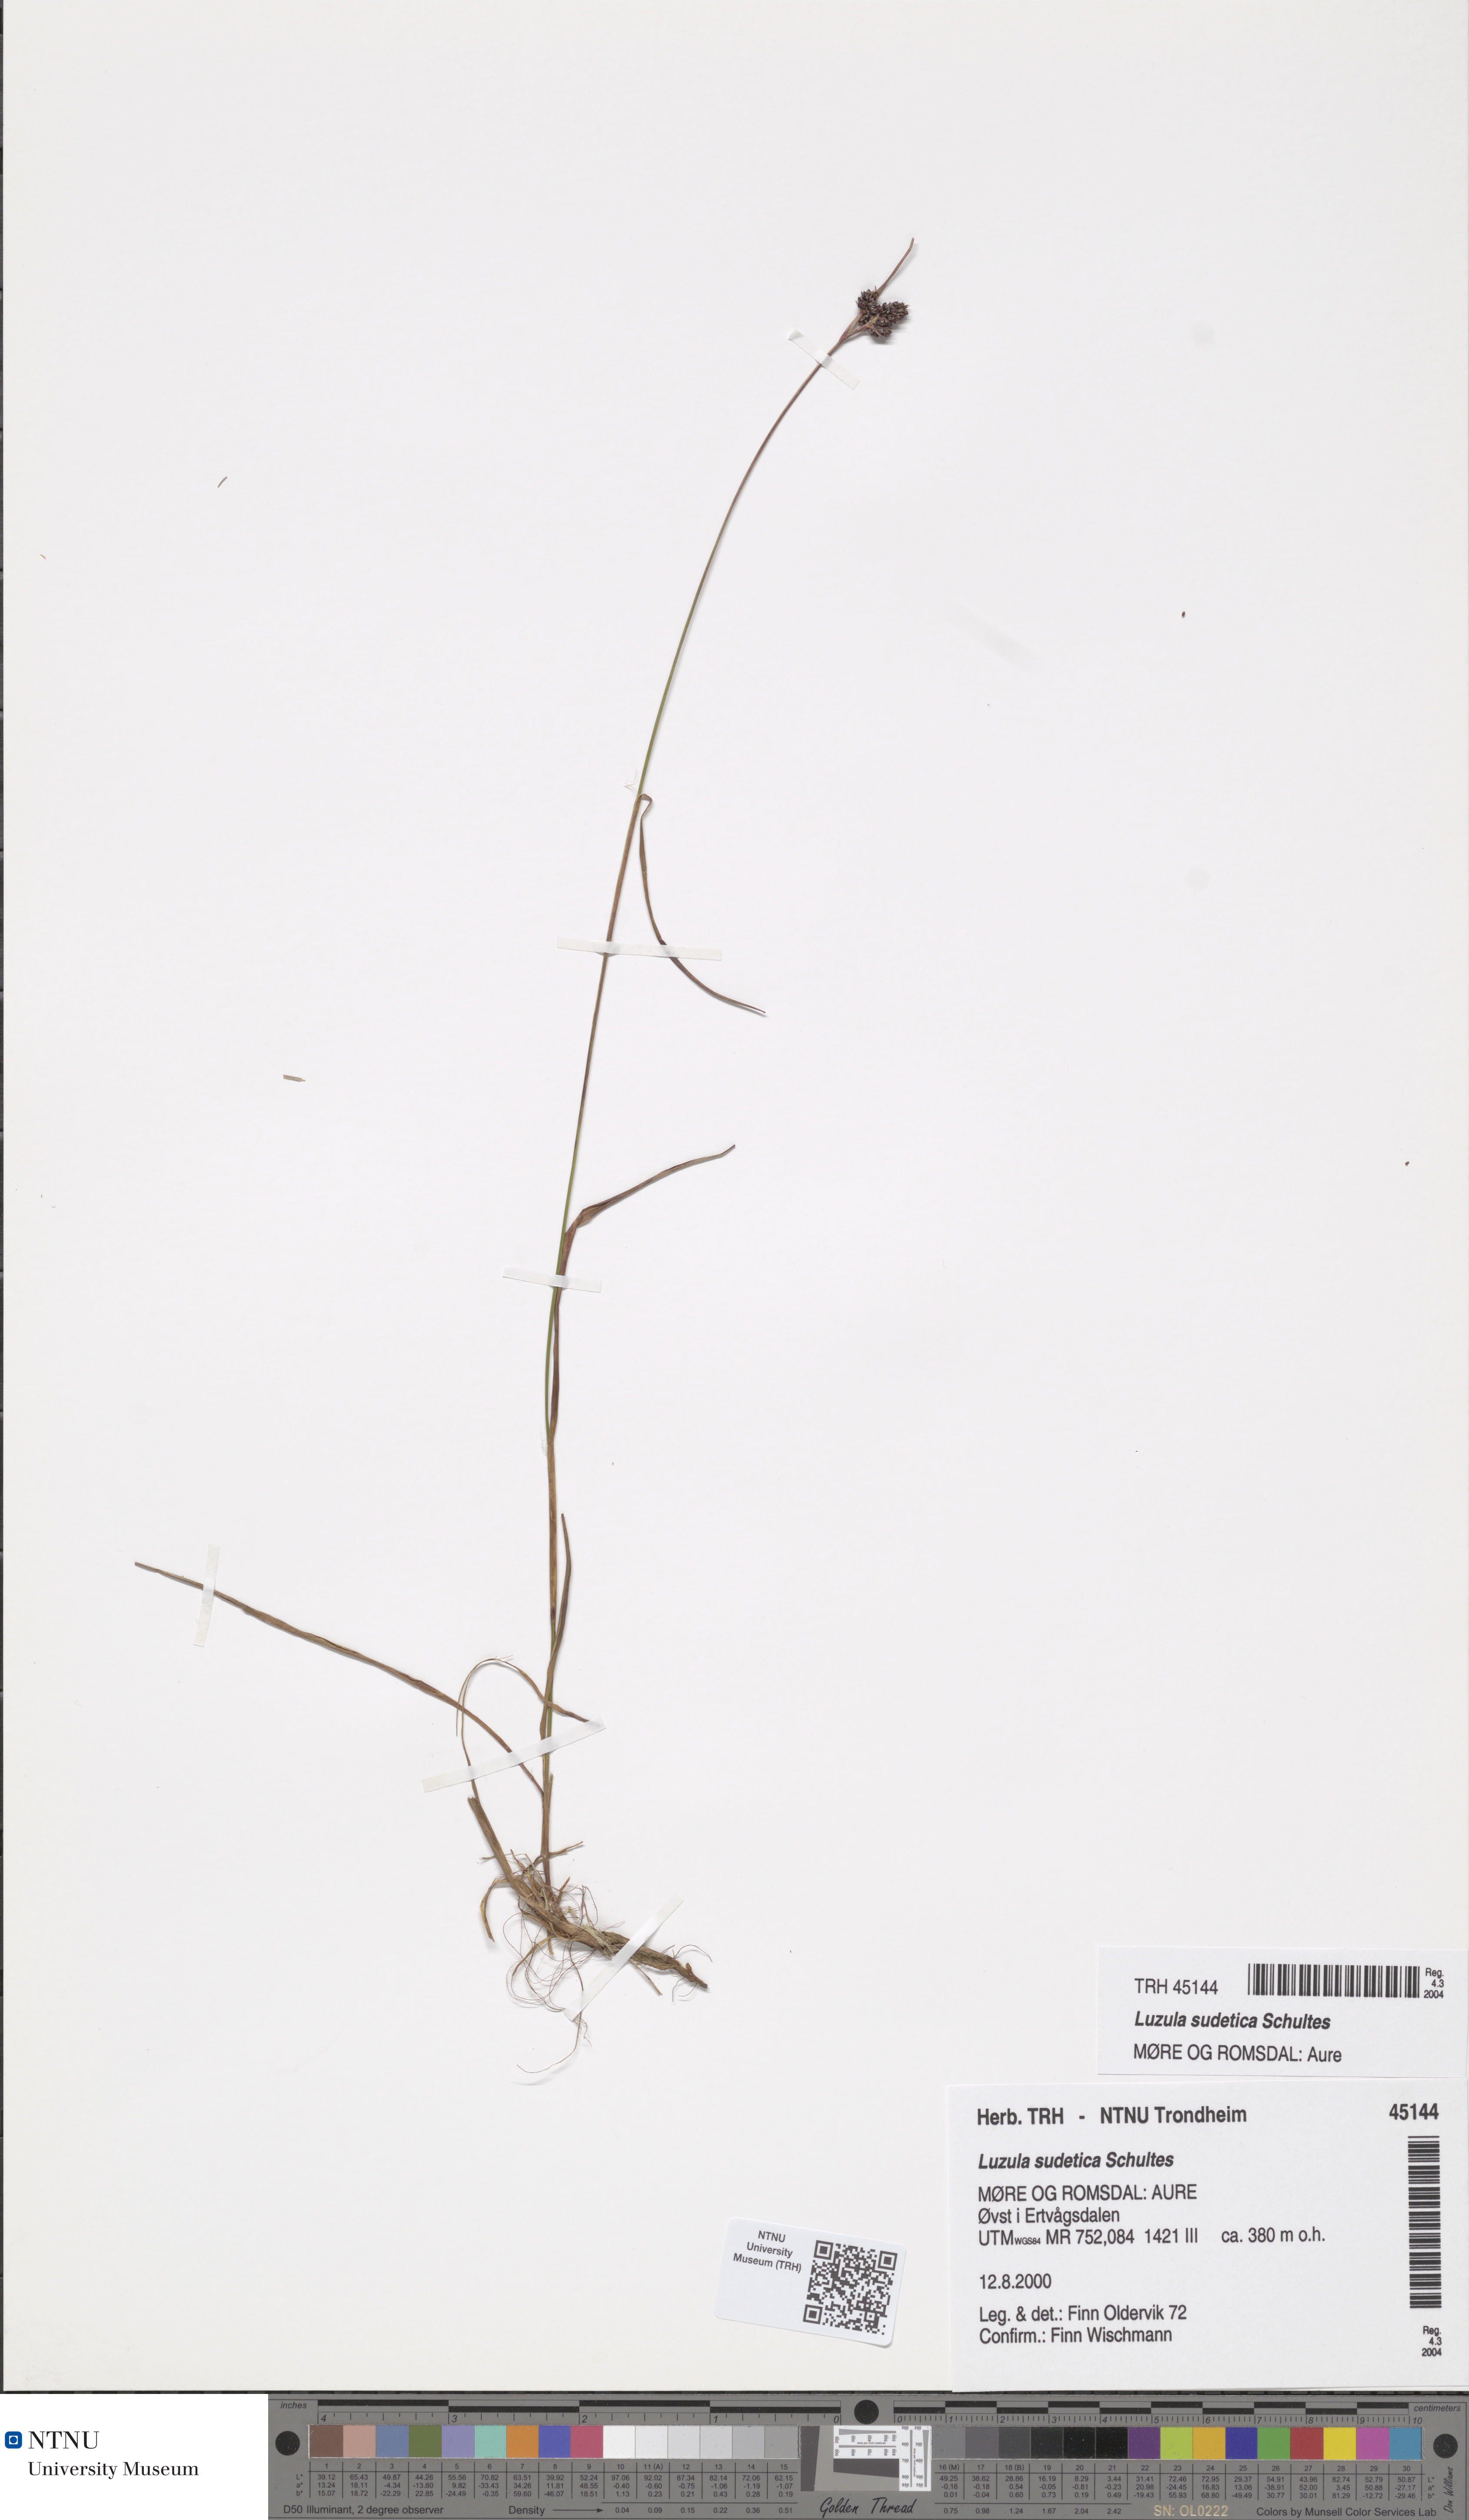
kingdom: Plantae
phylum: Tracheophyta
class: Liliopsida
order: Poales
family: Juncaceae
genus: Luzula
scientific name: Luzula sudetica
